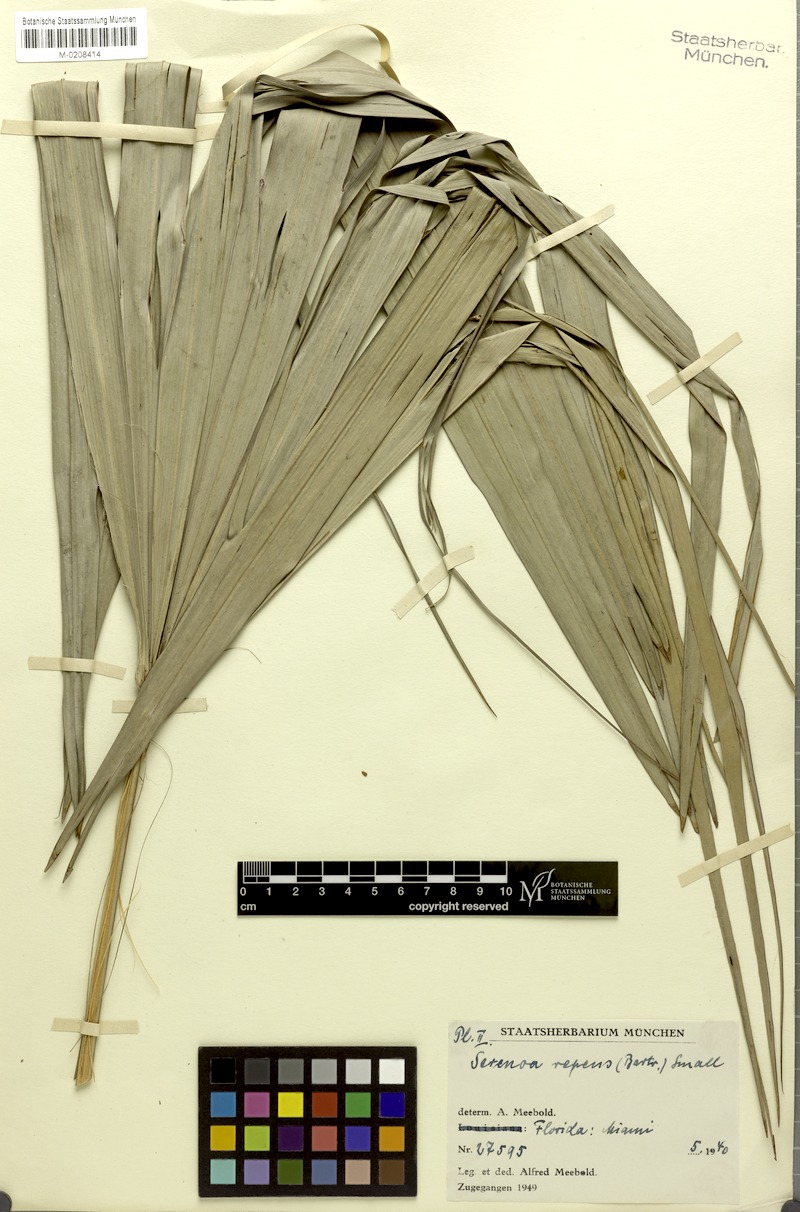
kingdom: Plantae
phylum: Tracheophyta
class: Liliopsida
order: Arecales
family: Arecaceae
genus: Serenoa
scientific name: Serenoa repens
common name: Saw-palmetto
